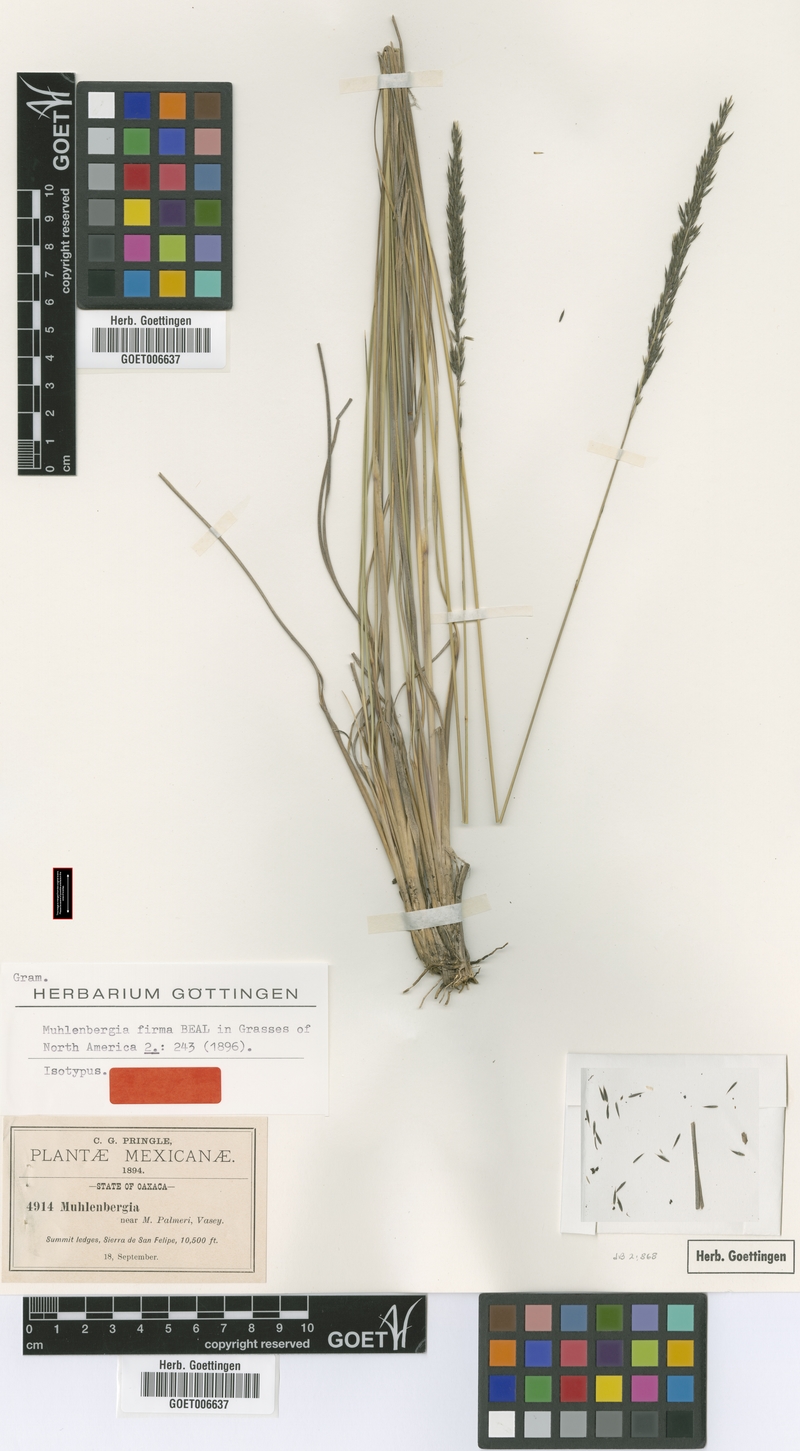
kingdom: Plantae
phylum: Tracheophyta
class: Liliopsida
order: Poales
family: Poaceae
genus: Muhlenbergia
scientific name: Muhlenbergia dubia
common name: Pine muhly
